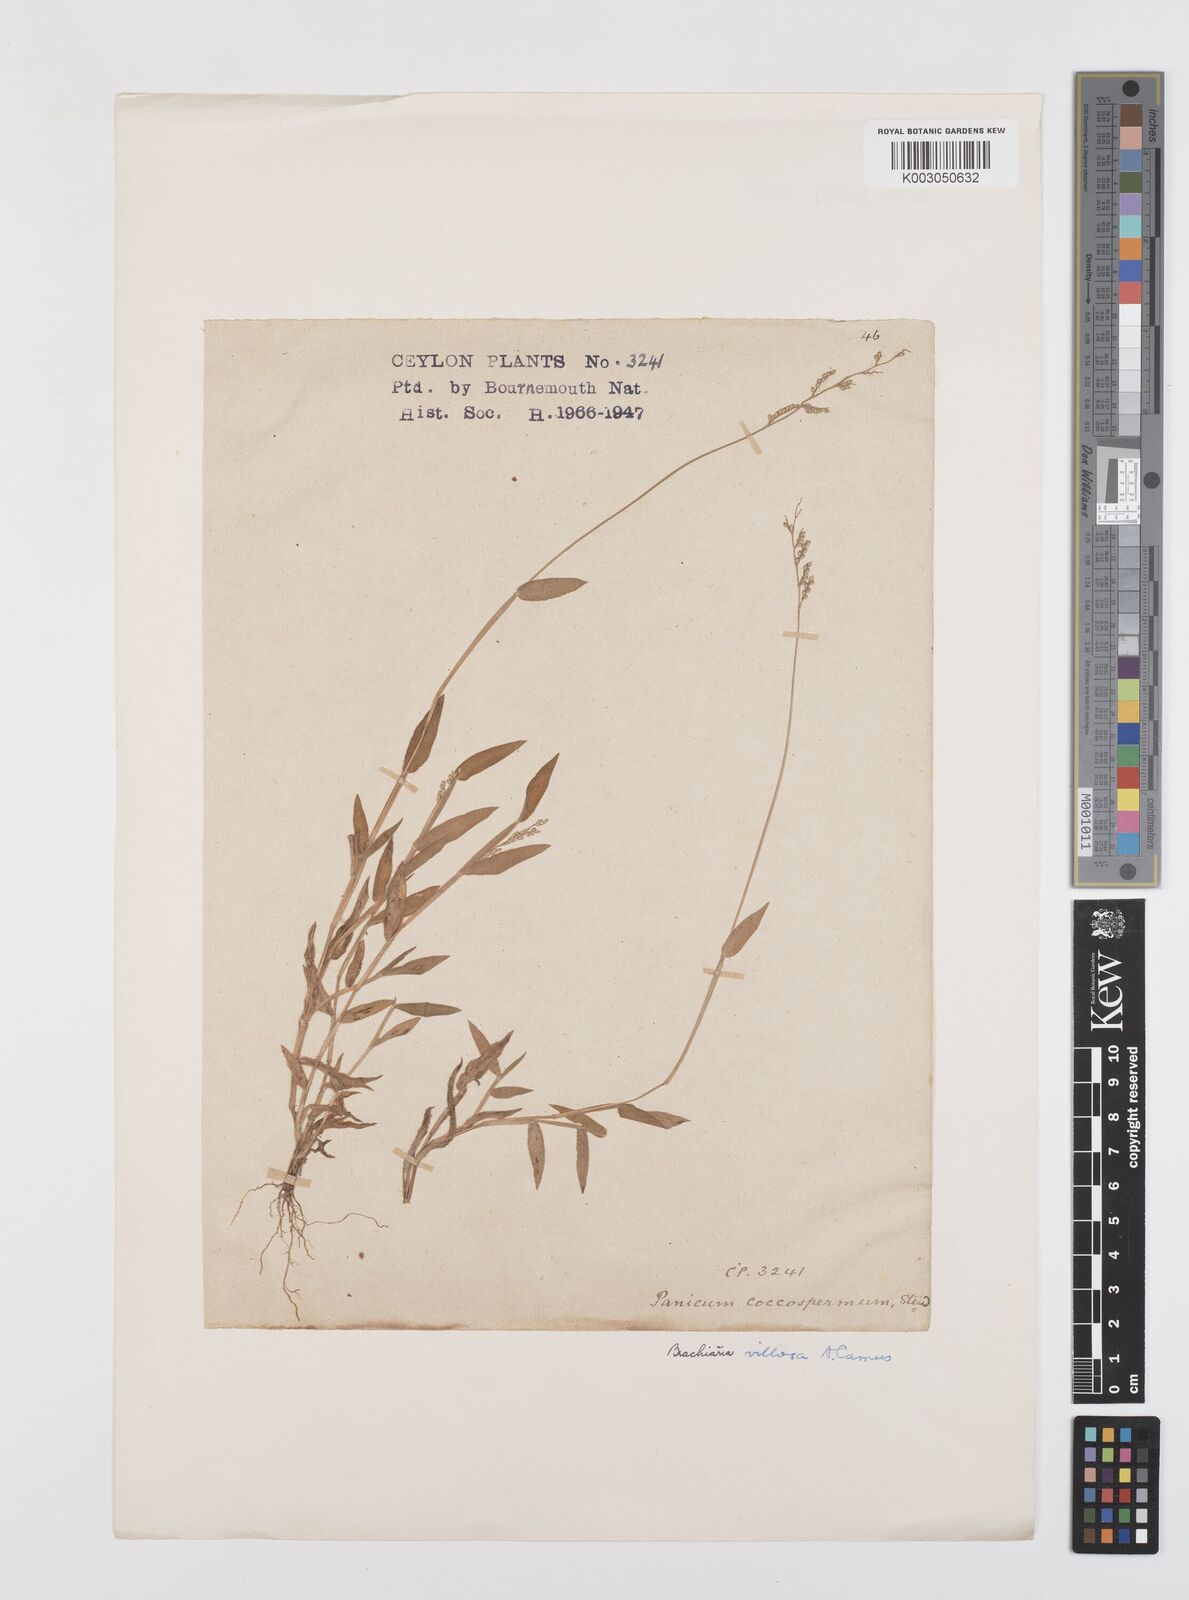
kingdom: Plantae
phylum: Tracheophyta
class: Liliopsida
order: Poales
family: Poaceae
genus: Urochloa
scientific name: Urochloa semiundulata
